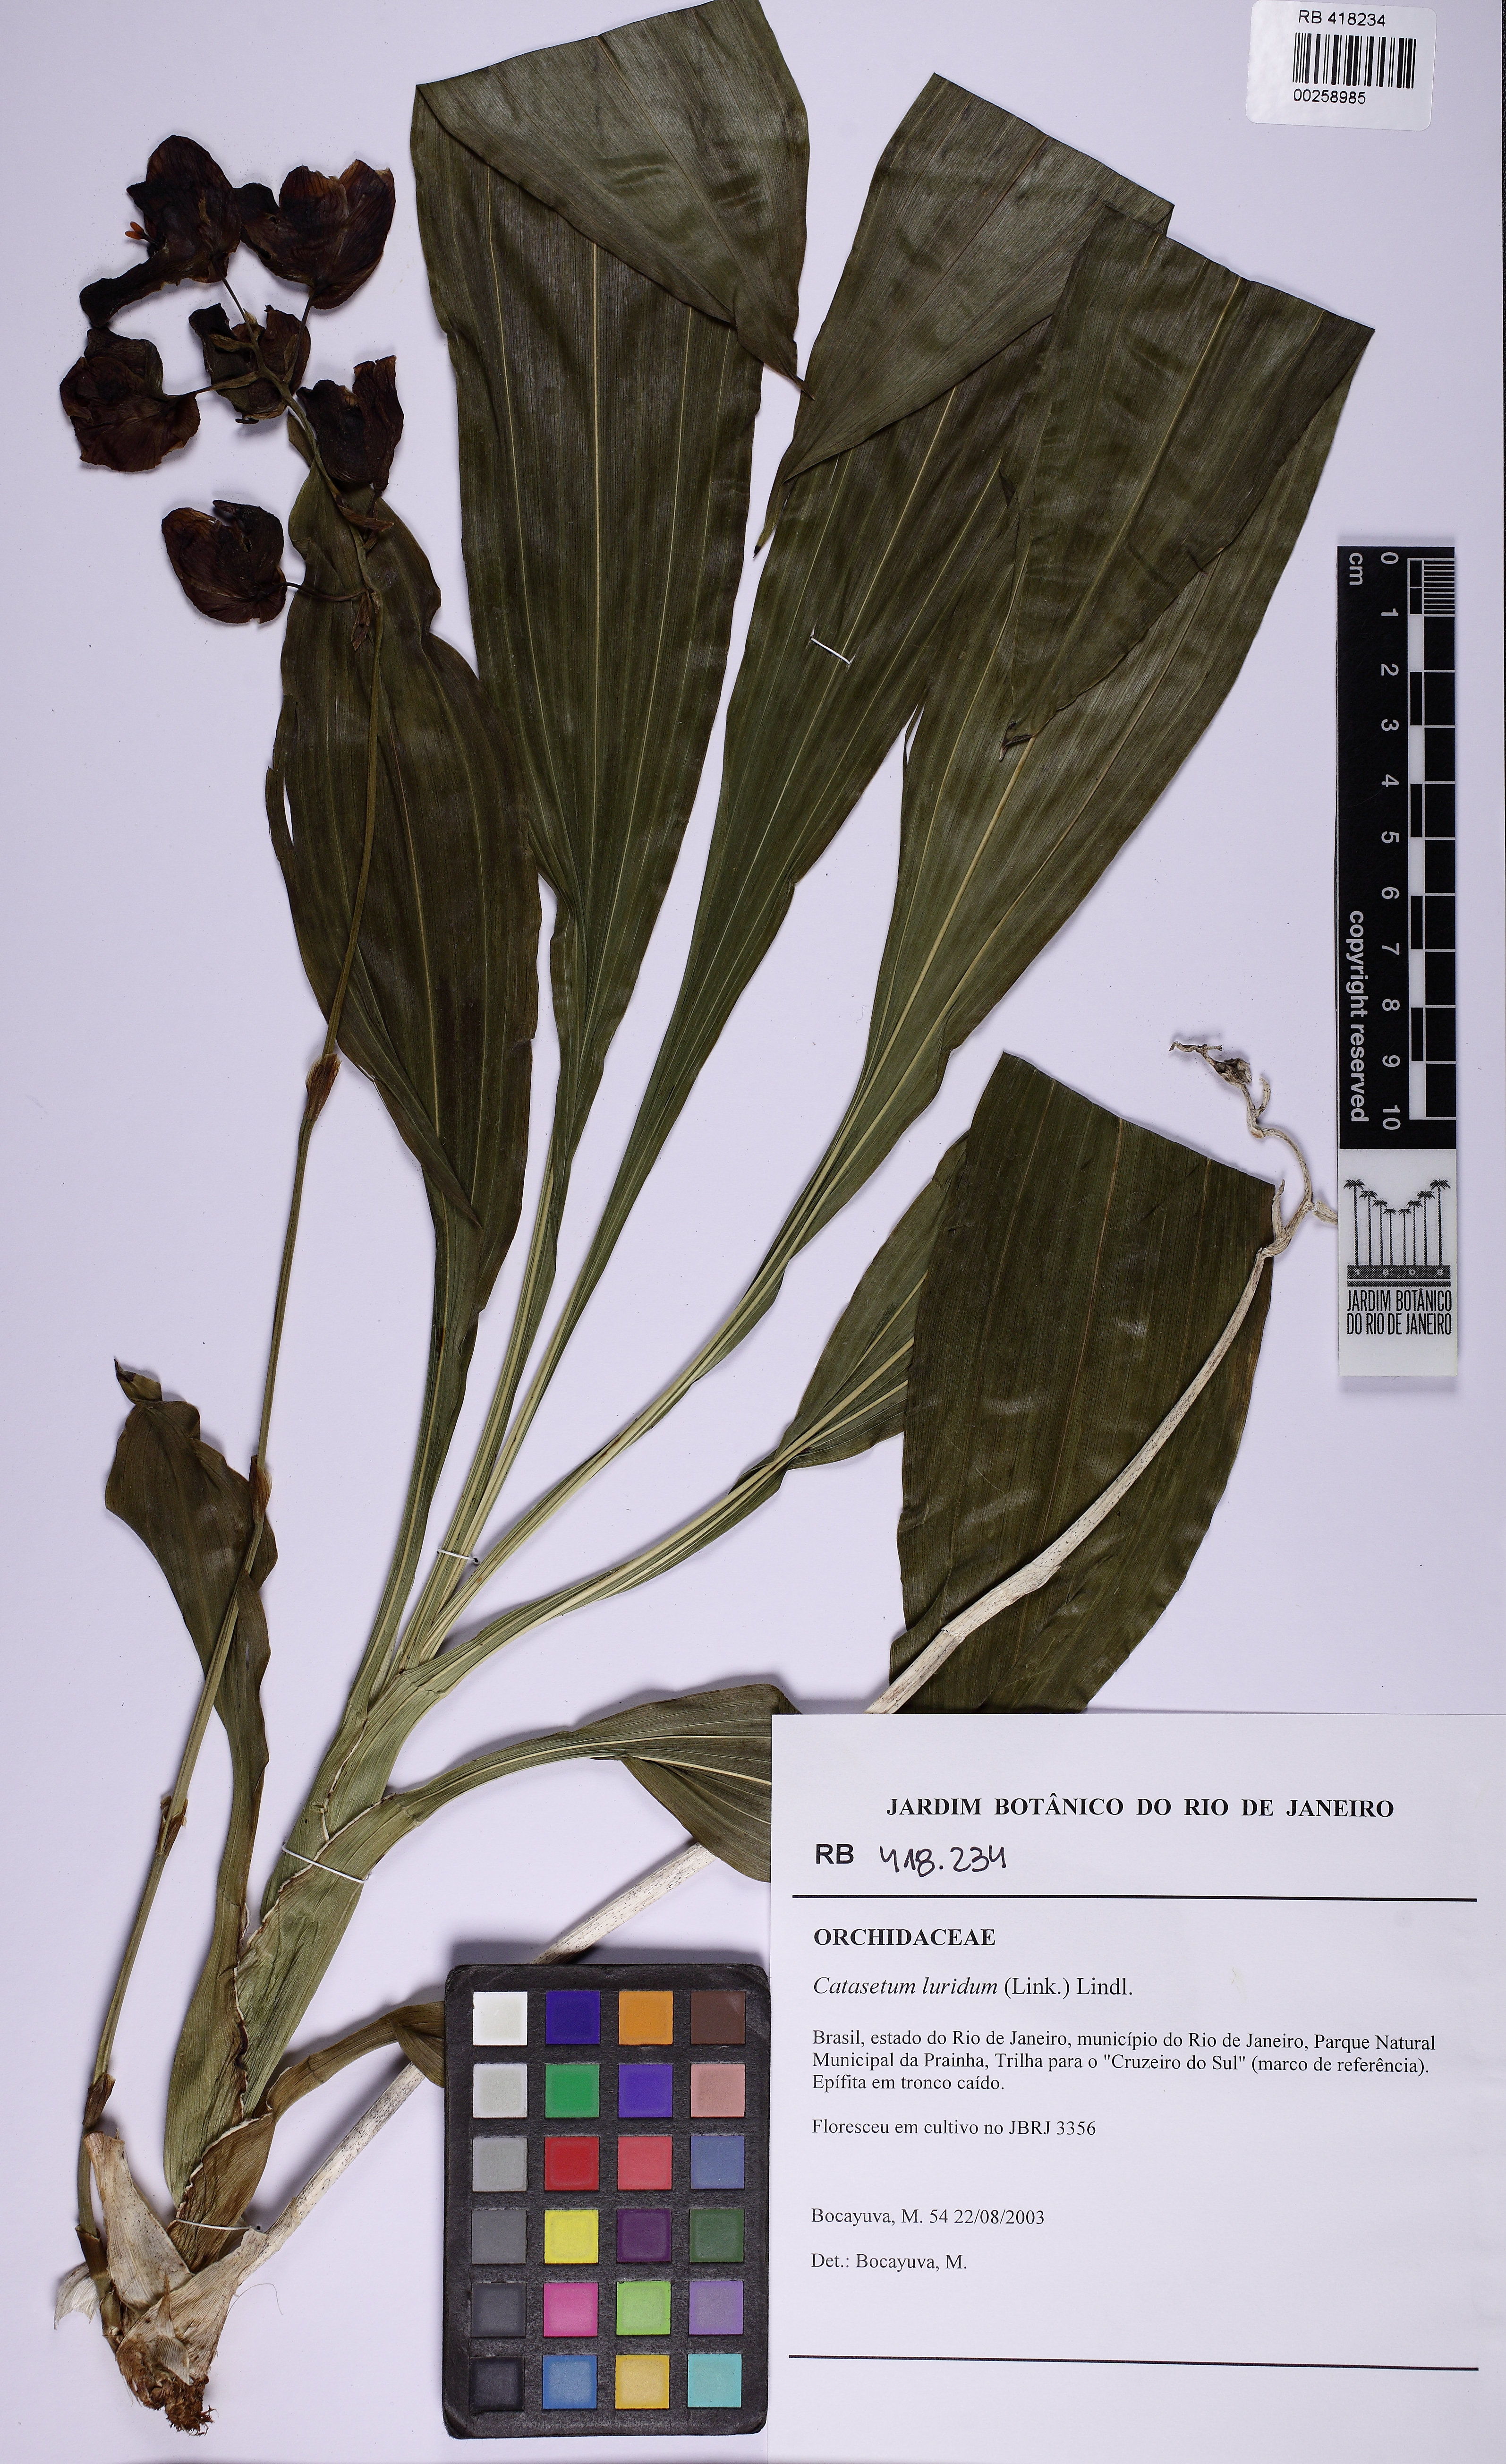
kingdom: Plantae
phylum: Tracheophyta
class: Liliopsida
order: Asparagales
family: Orchidaceae
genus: Catasetum
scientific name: Catasetum luridum
